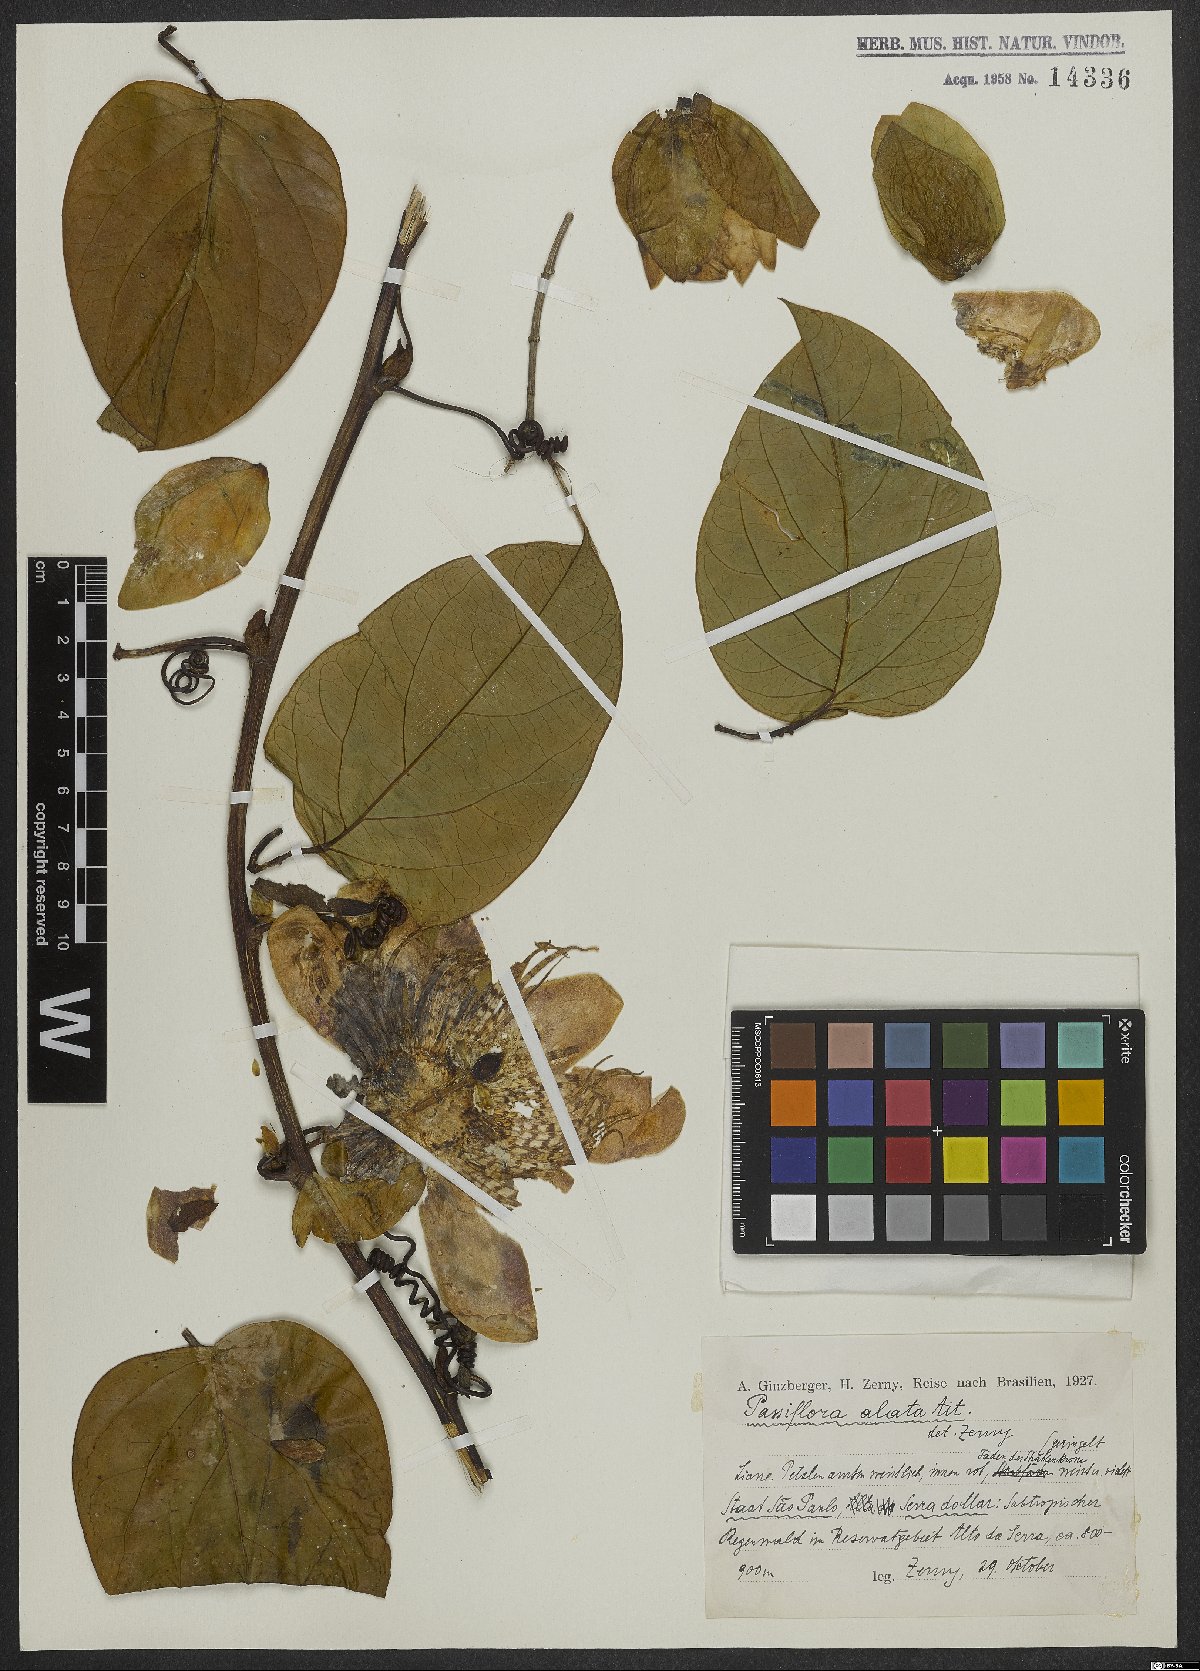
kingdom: Plantae
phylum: Tracheophyta
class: Magnoliopsida
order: Malpighiales
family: Passifloraceae
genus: Passiflora
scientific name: Passiflora alata
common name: Wing-stemmed passion flower
